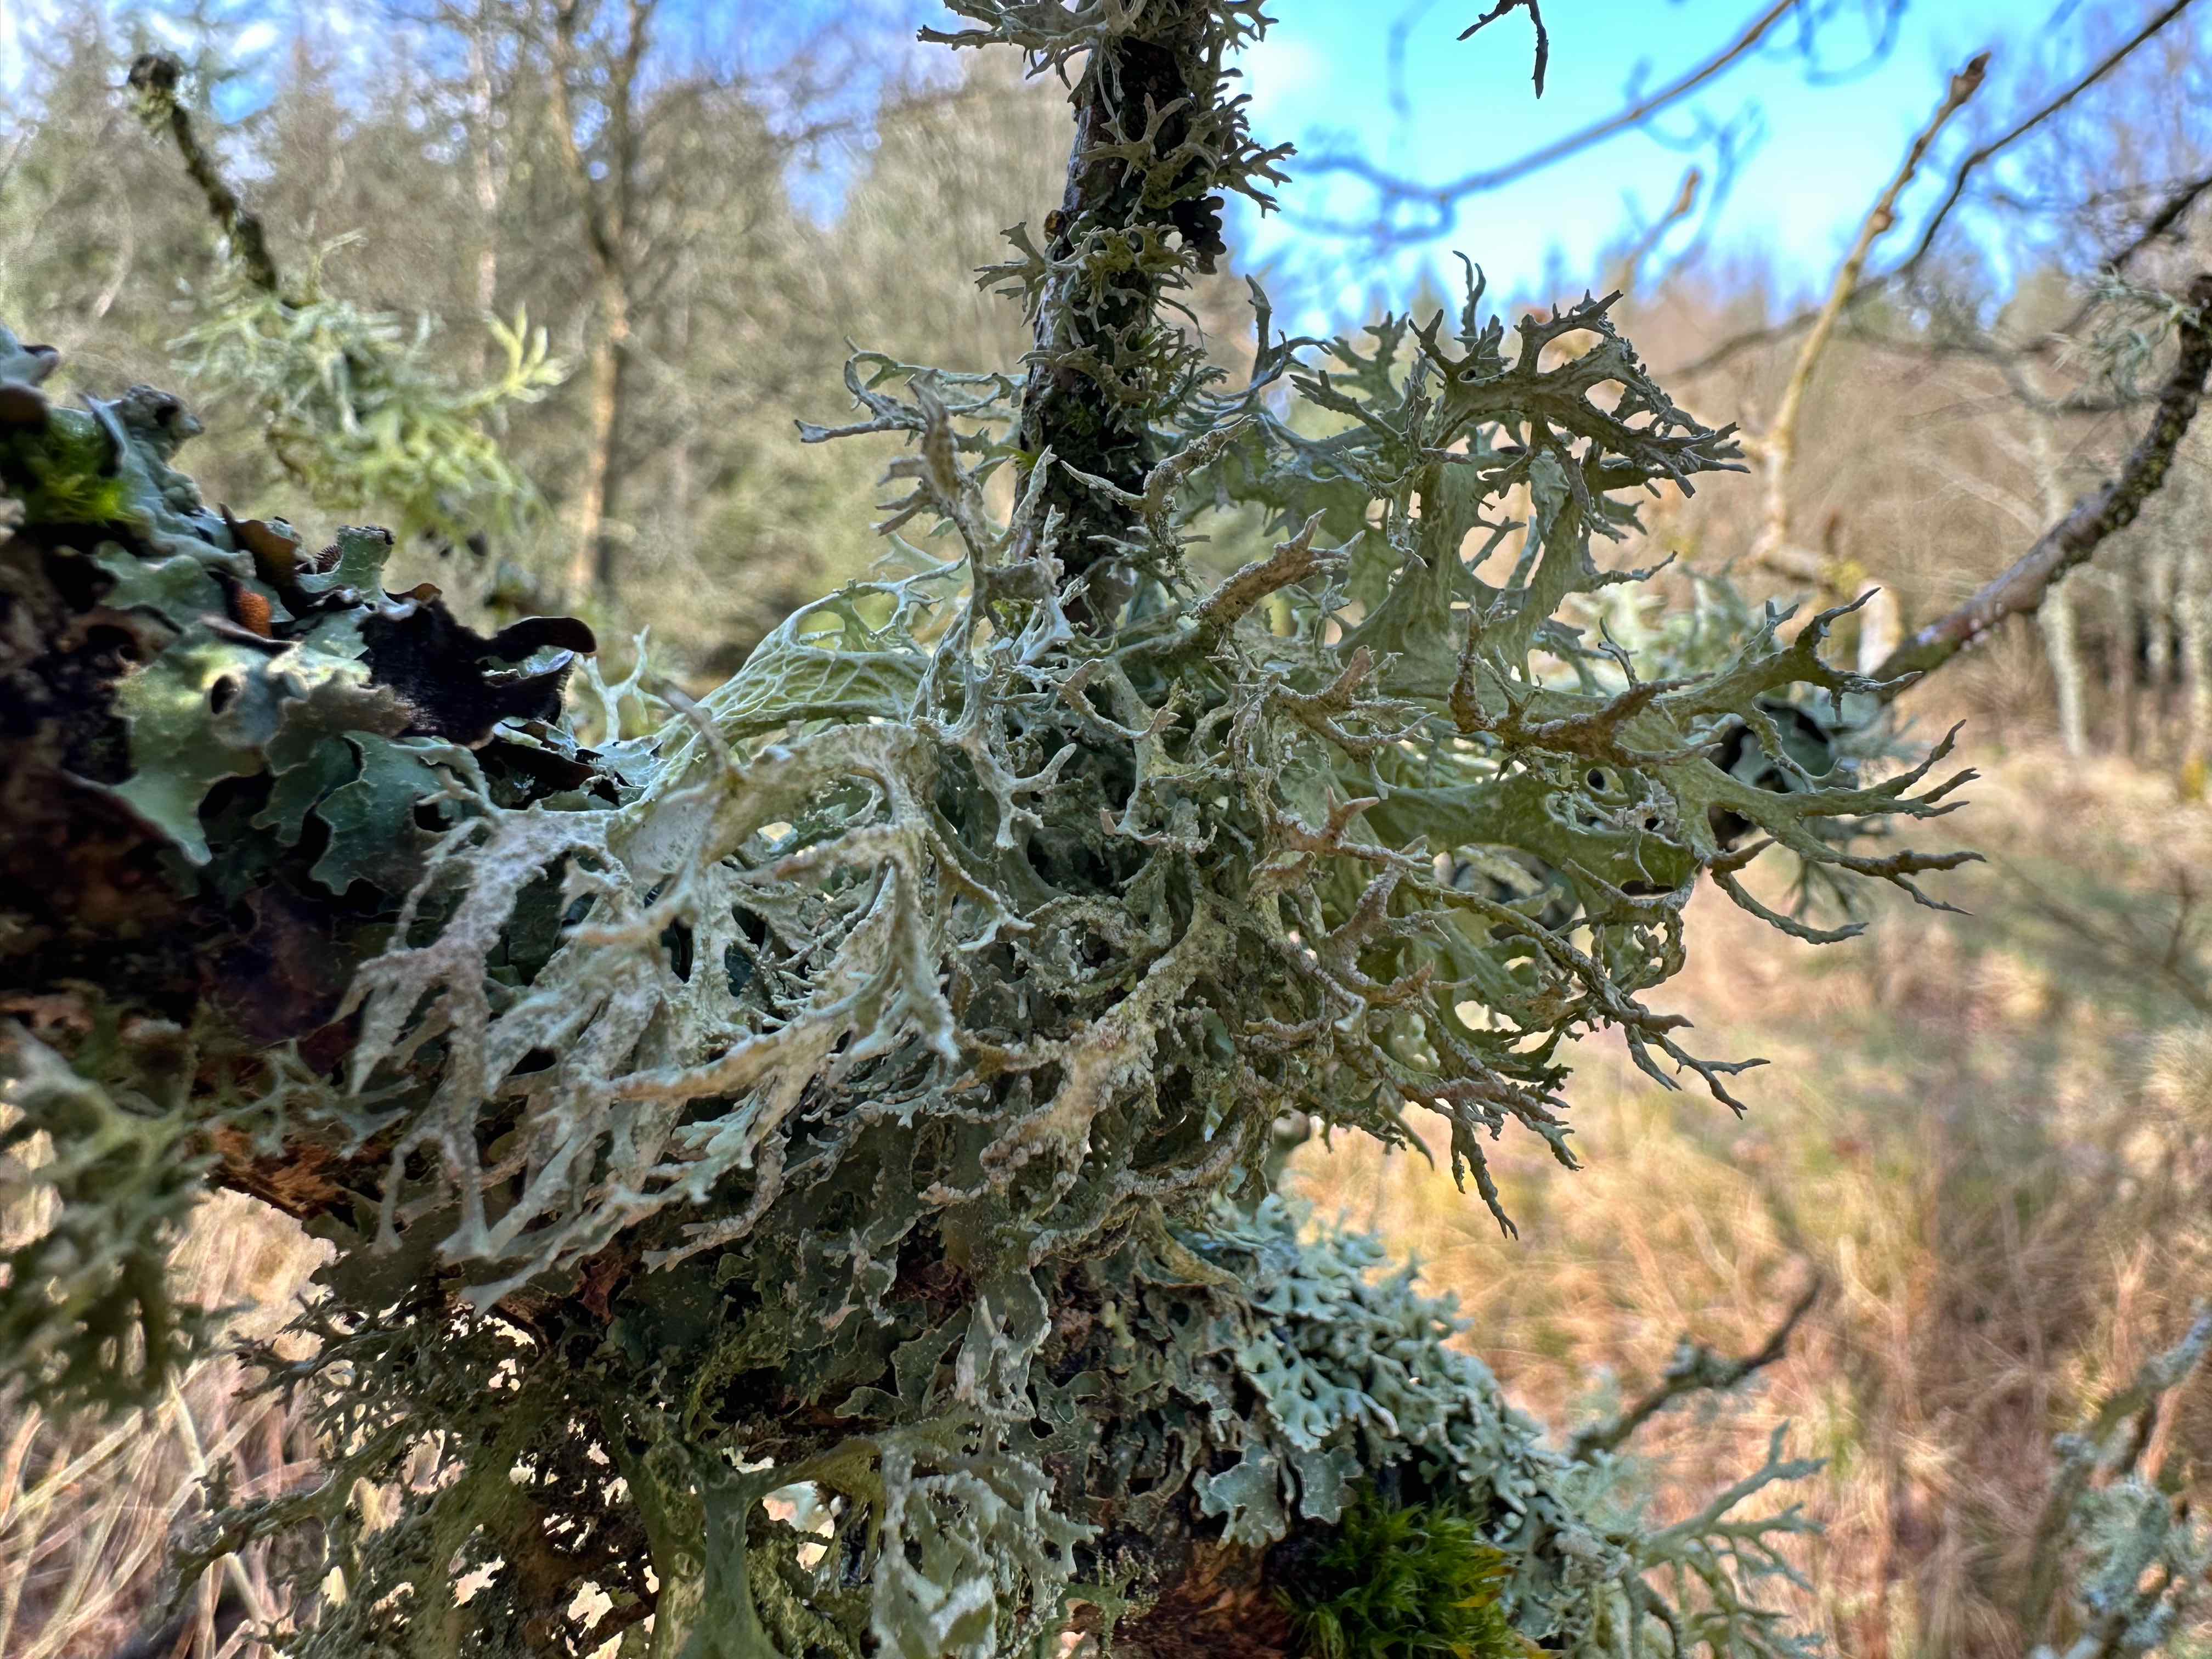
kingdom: Fungi
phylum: Ascomycota
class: Lecanoromycetes
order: Lecanorales
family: Parmeliaceae
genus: Evernia
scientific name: Evernia prunastri
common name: almindelig slåenlav
